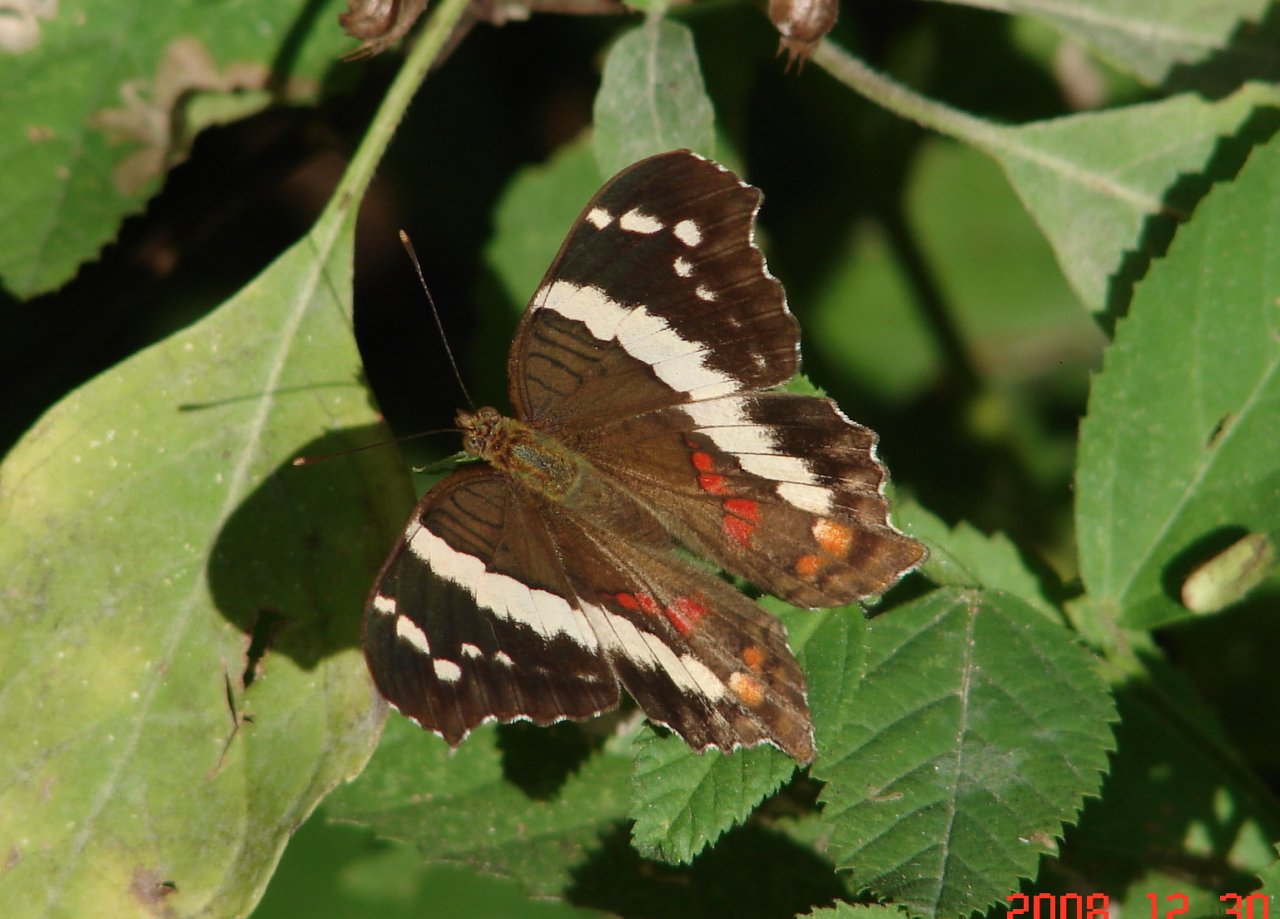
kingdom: Animalia
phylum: Arthropoda
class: Insecta
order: Lepidoptera
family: Nymphalidae
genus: Anartia
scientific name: Anartia fatima
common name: Banded Peacock
